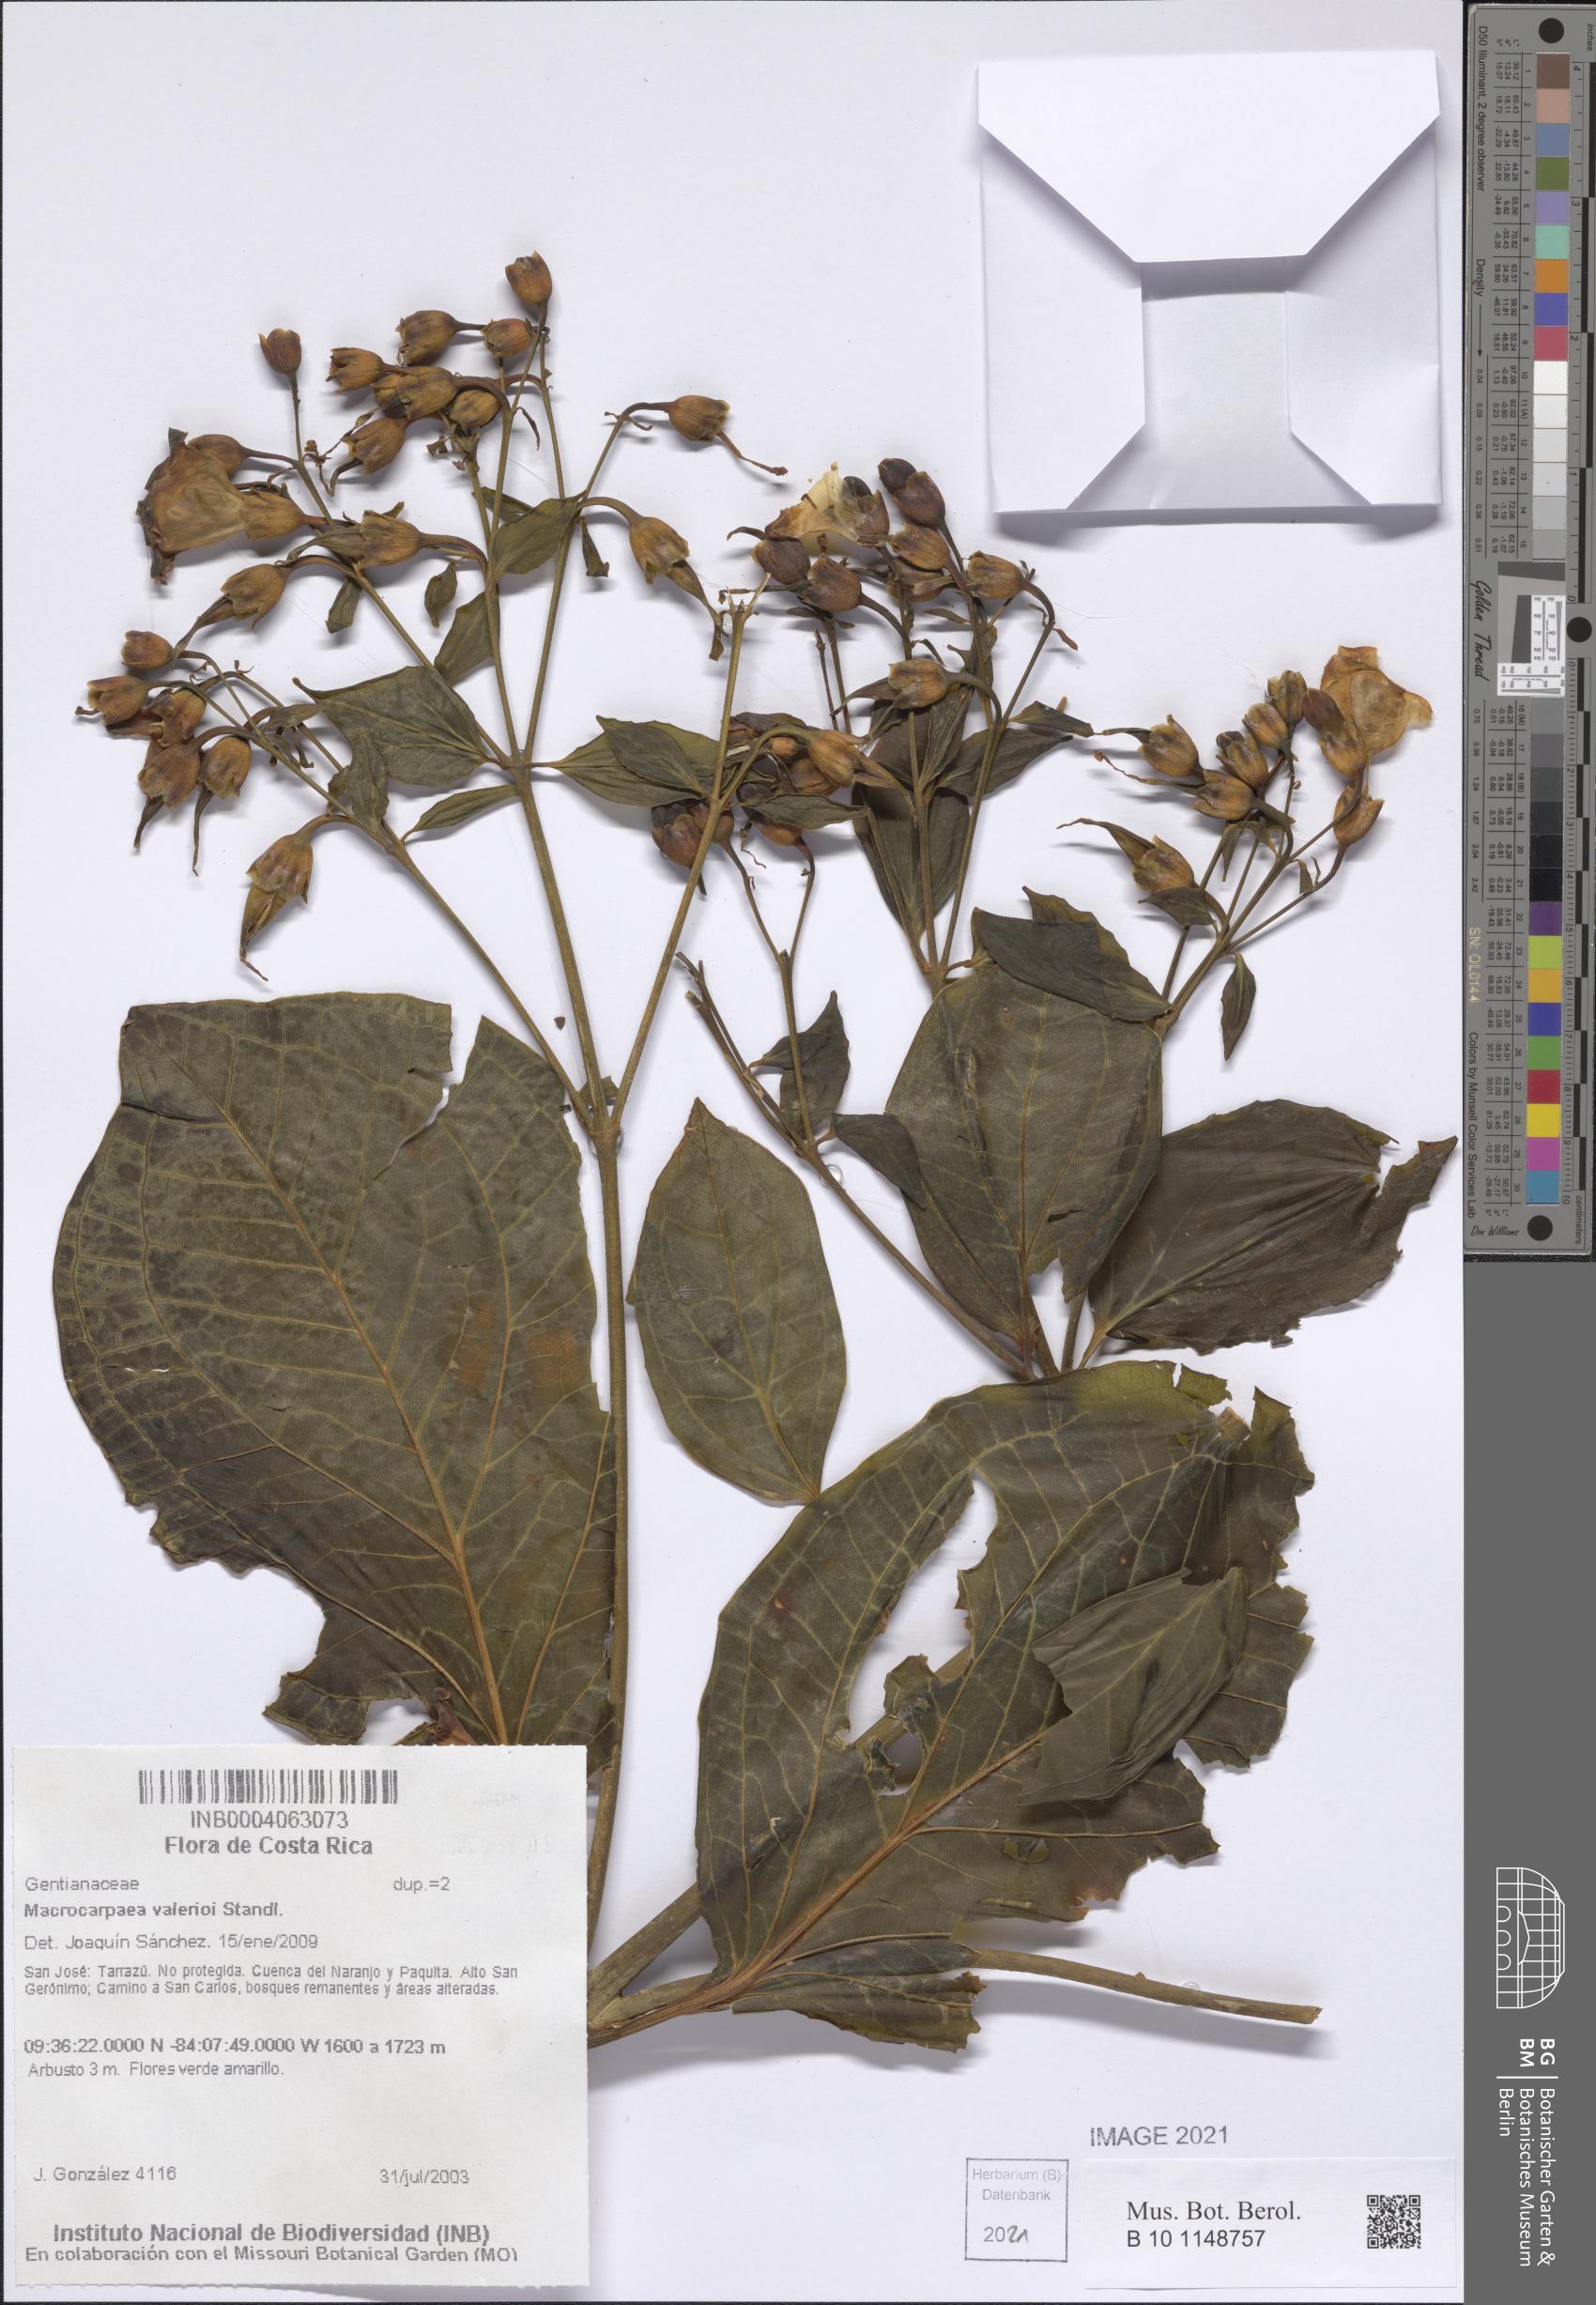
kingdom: Plantae
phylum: Tracheophyta
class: Magnoliopsida
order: Gentianales
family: Gentianaceae
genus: Macrocarpaea
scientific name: Macrocarpaea valerioi
